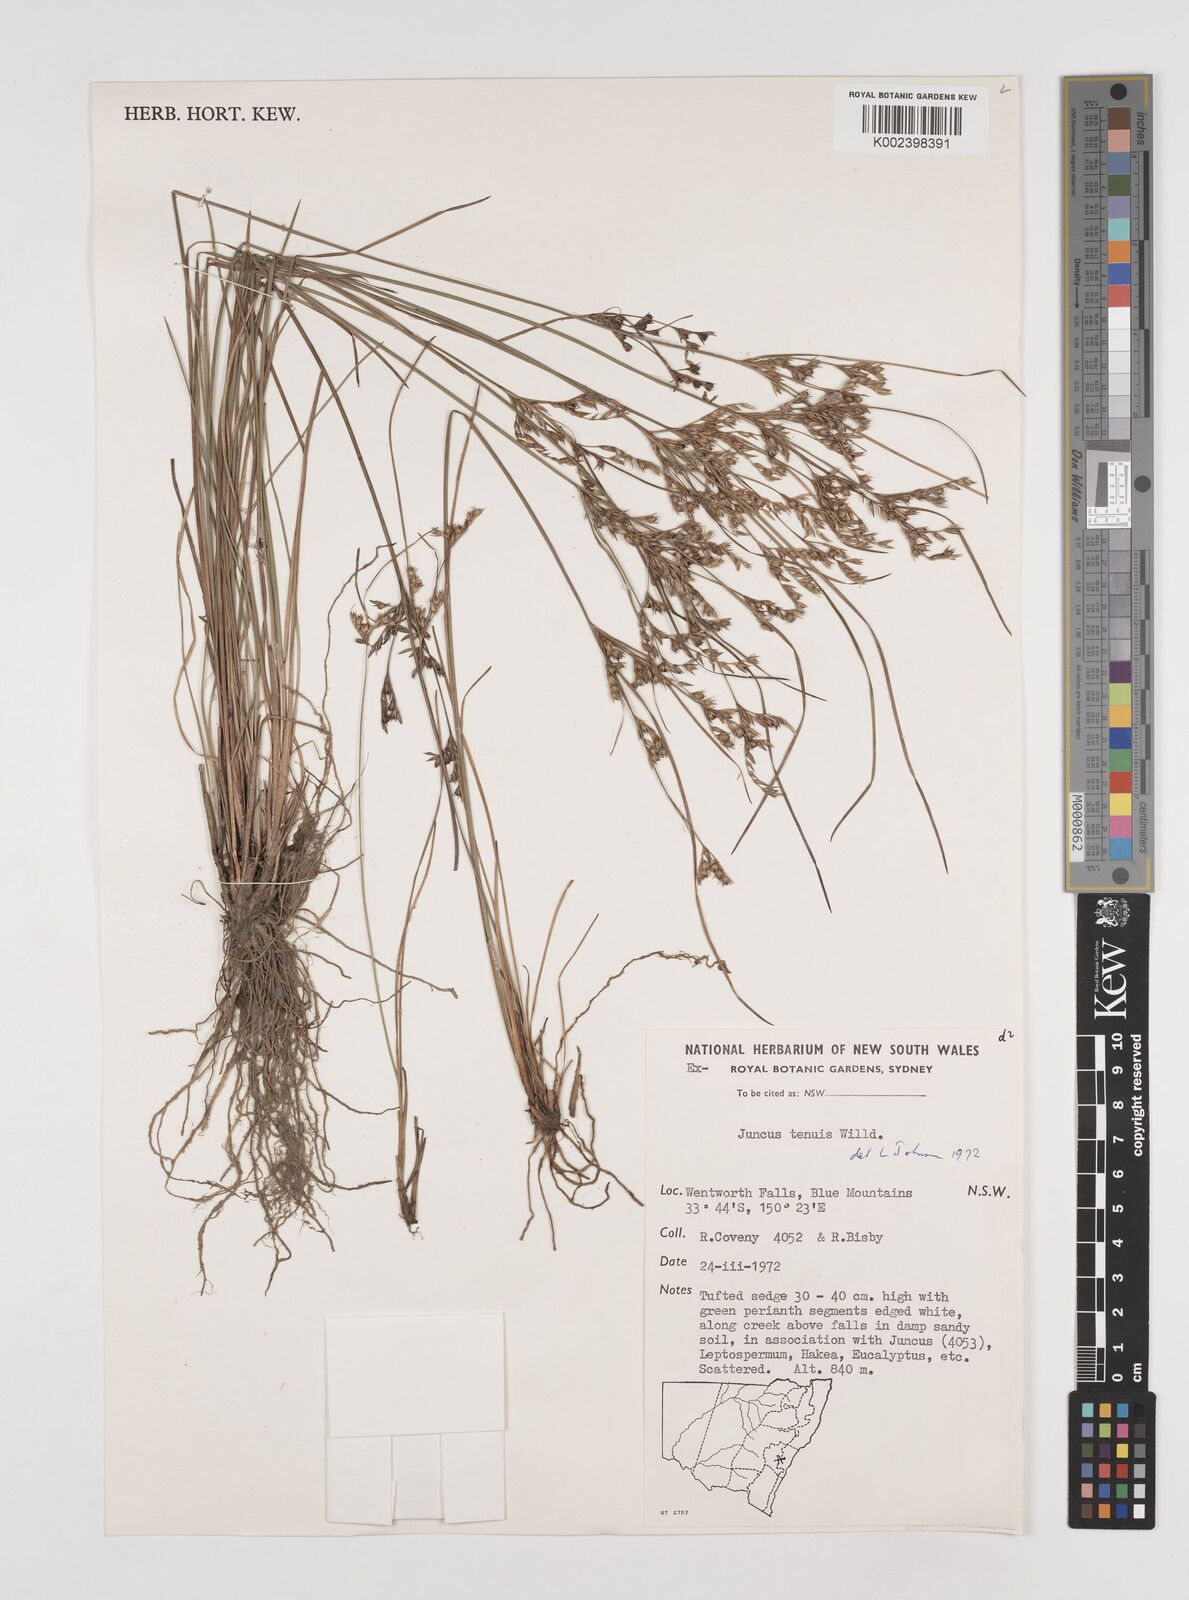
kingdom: Plantae
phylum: Tracheophyta
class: Liliopsida
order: Poales
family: Juncaceae
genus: Juncus
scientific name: Juncus tenuis
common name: Slender rush
